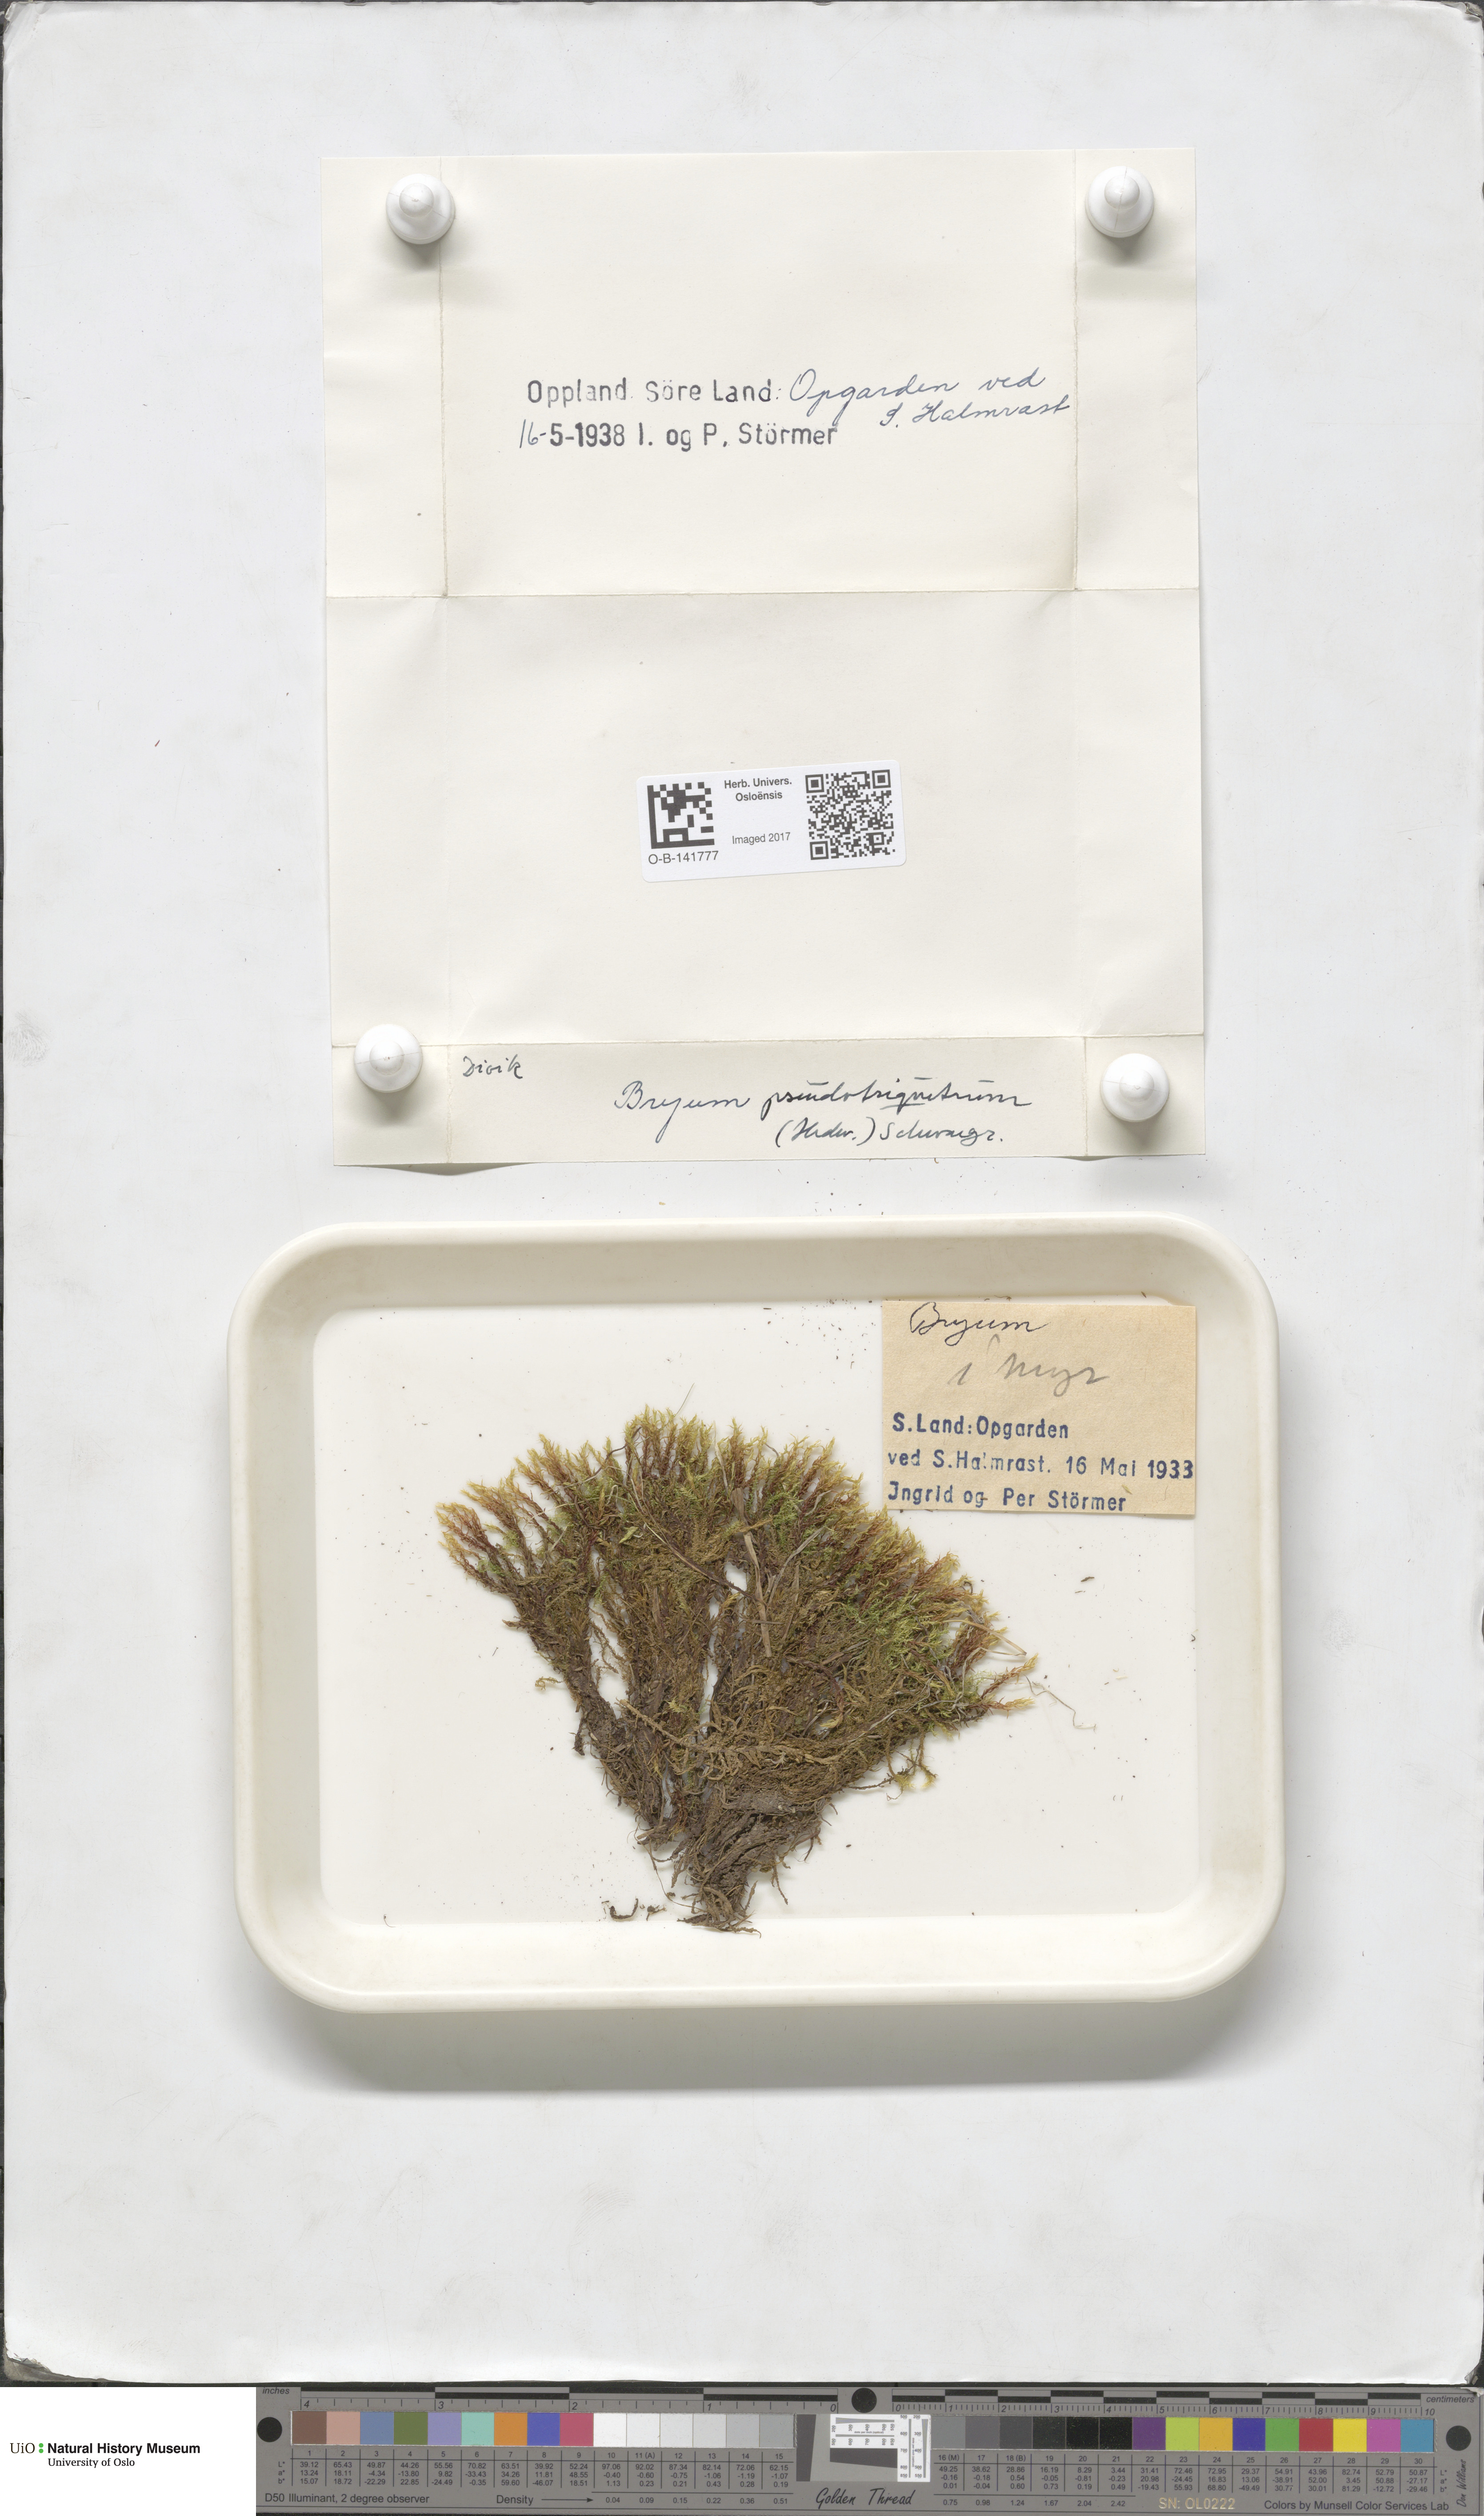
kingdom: Plantae
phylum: Bryophyta
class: Bryopsida
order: Bryales
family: Bryaceae
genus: Ptychostomum
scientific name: Ptychostomum pseudotriquetrum
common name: Long-leaved thread moss
